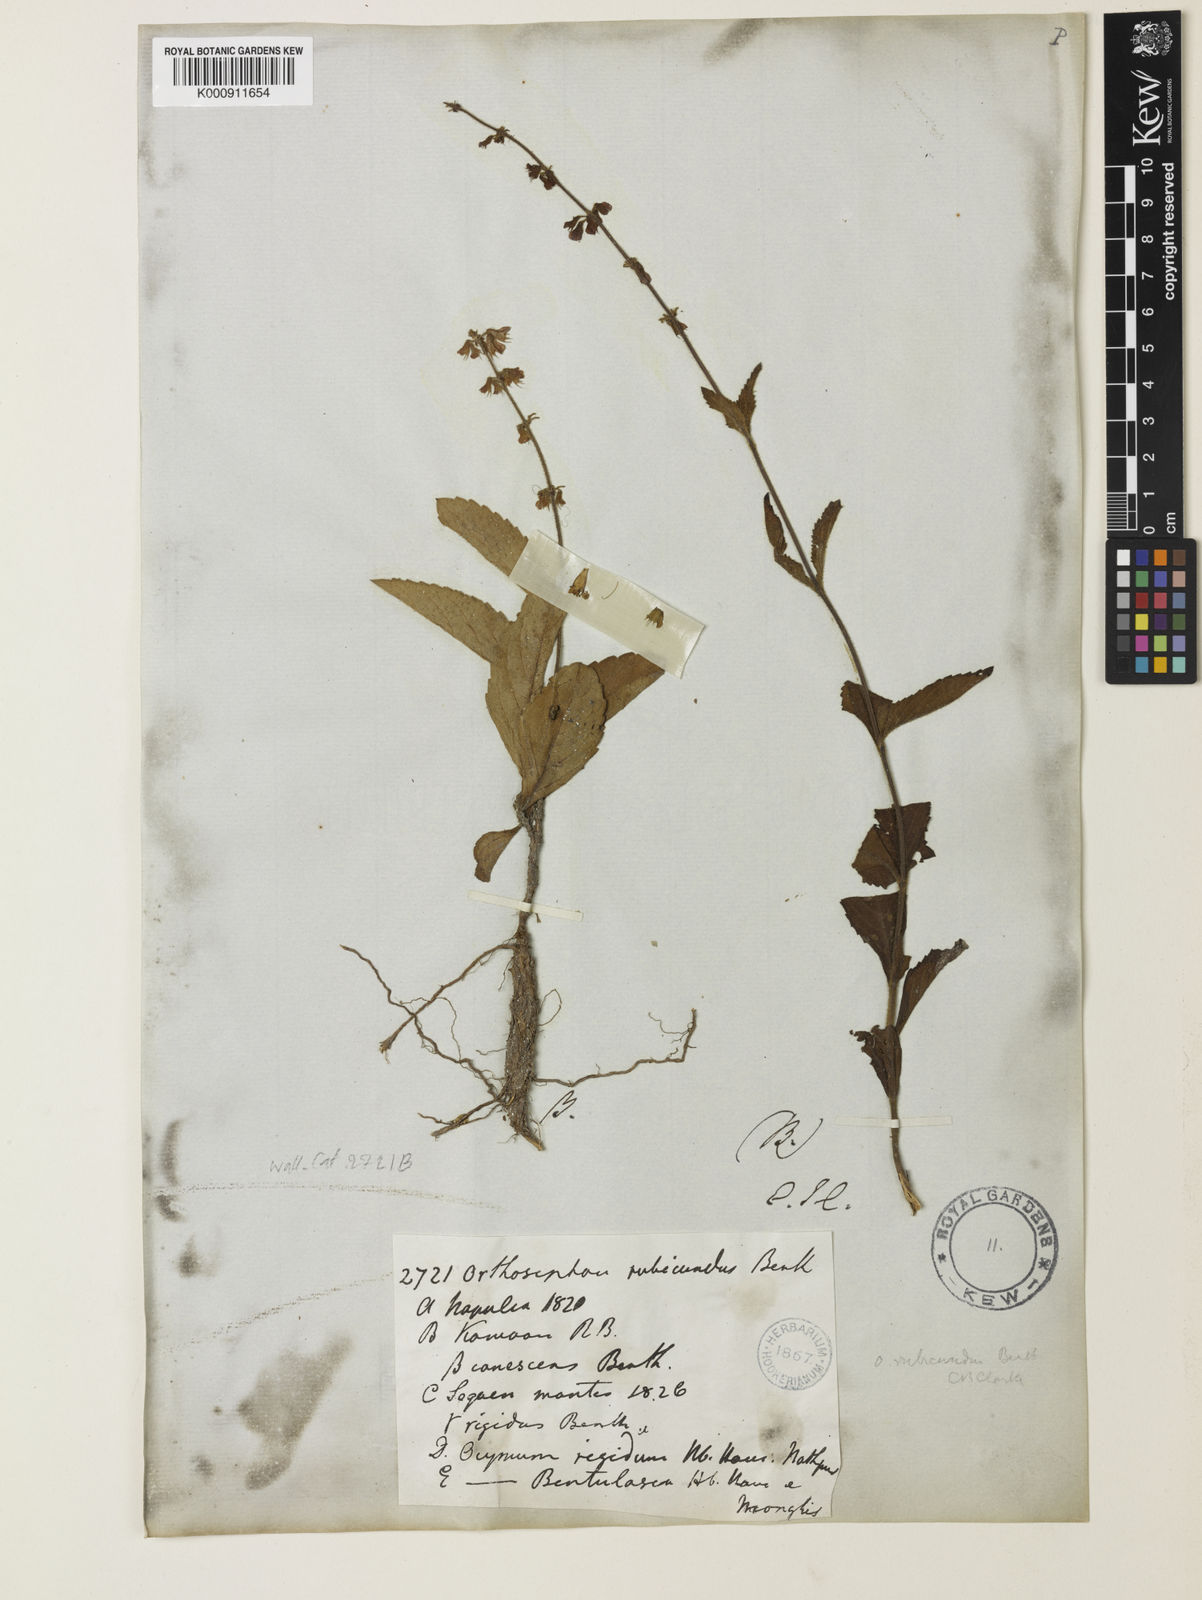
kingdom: Plantae
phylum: Tracheophyta
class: Magnoliopsida
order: Lamiales
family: Lamiaceae
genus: Orthosiphon
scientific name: Orthosiphon rubicundus
